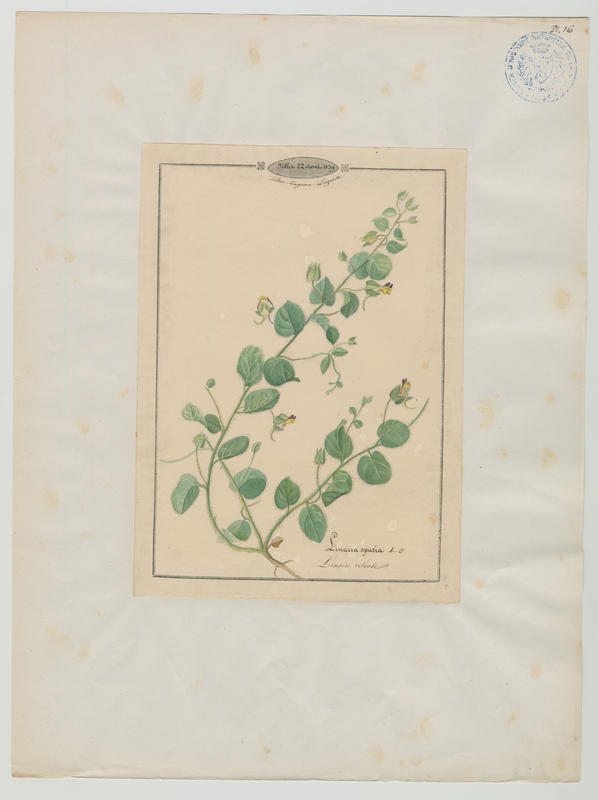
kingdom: Plantae
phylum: Tracheophyta
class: Magnoliopsida
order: Lamiales
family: Plantaginaceae
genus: Kickxia
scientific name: Kickxia spuria
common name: Round-leaved fluellen
